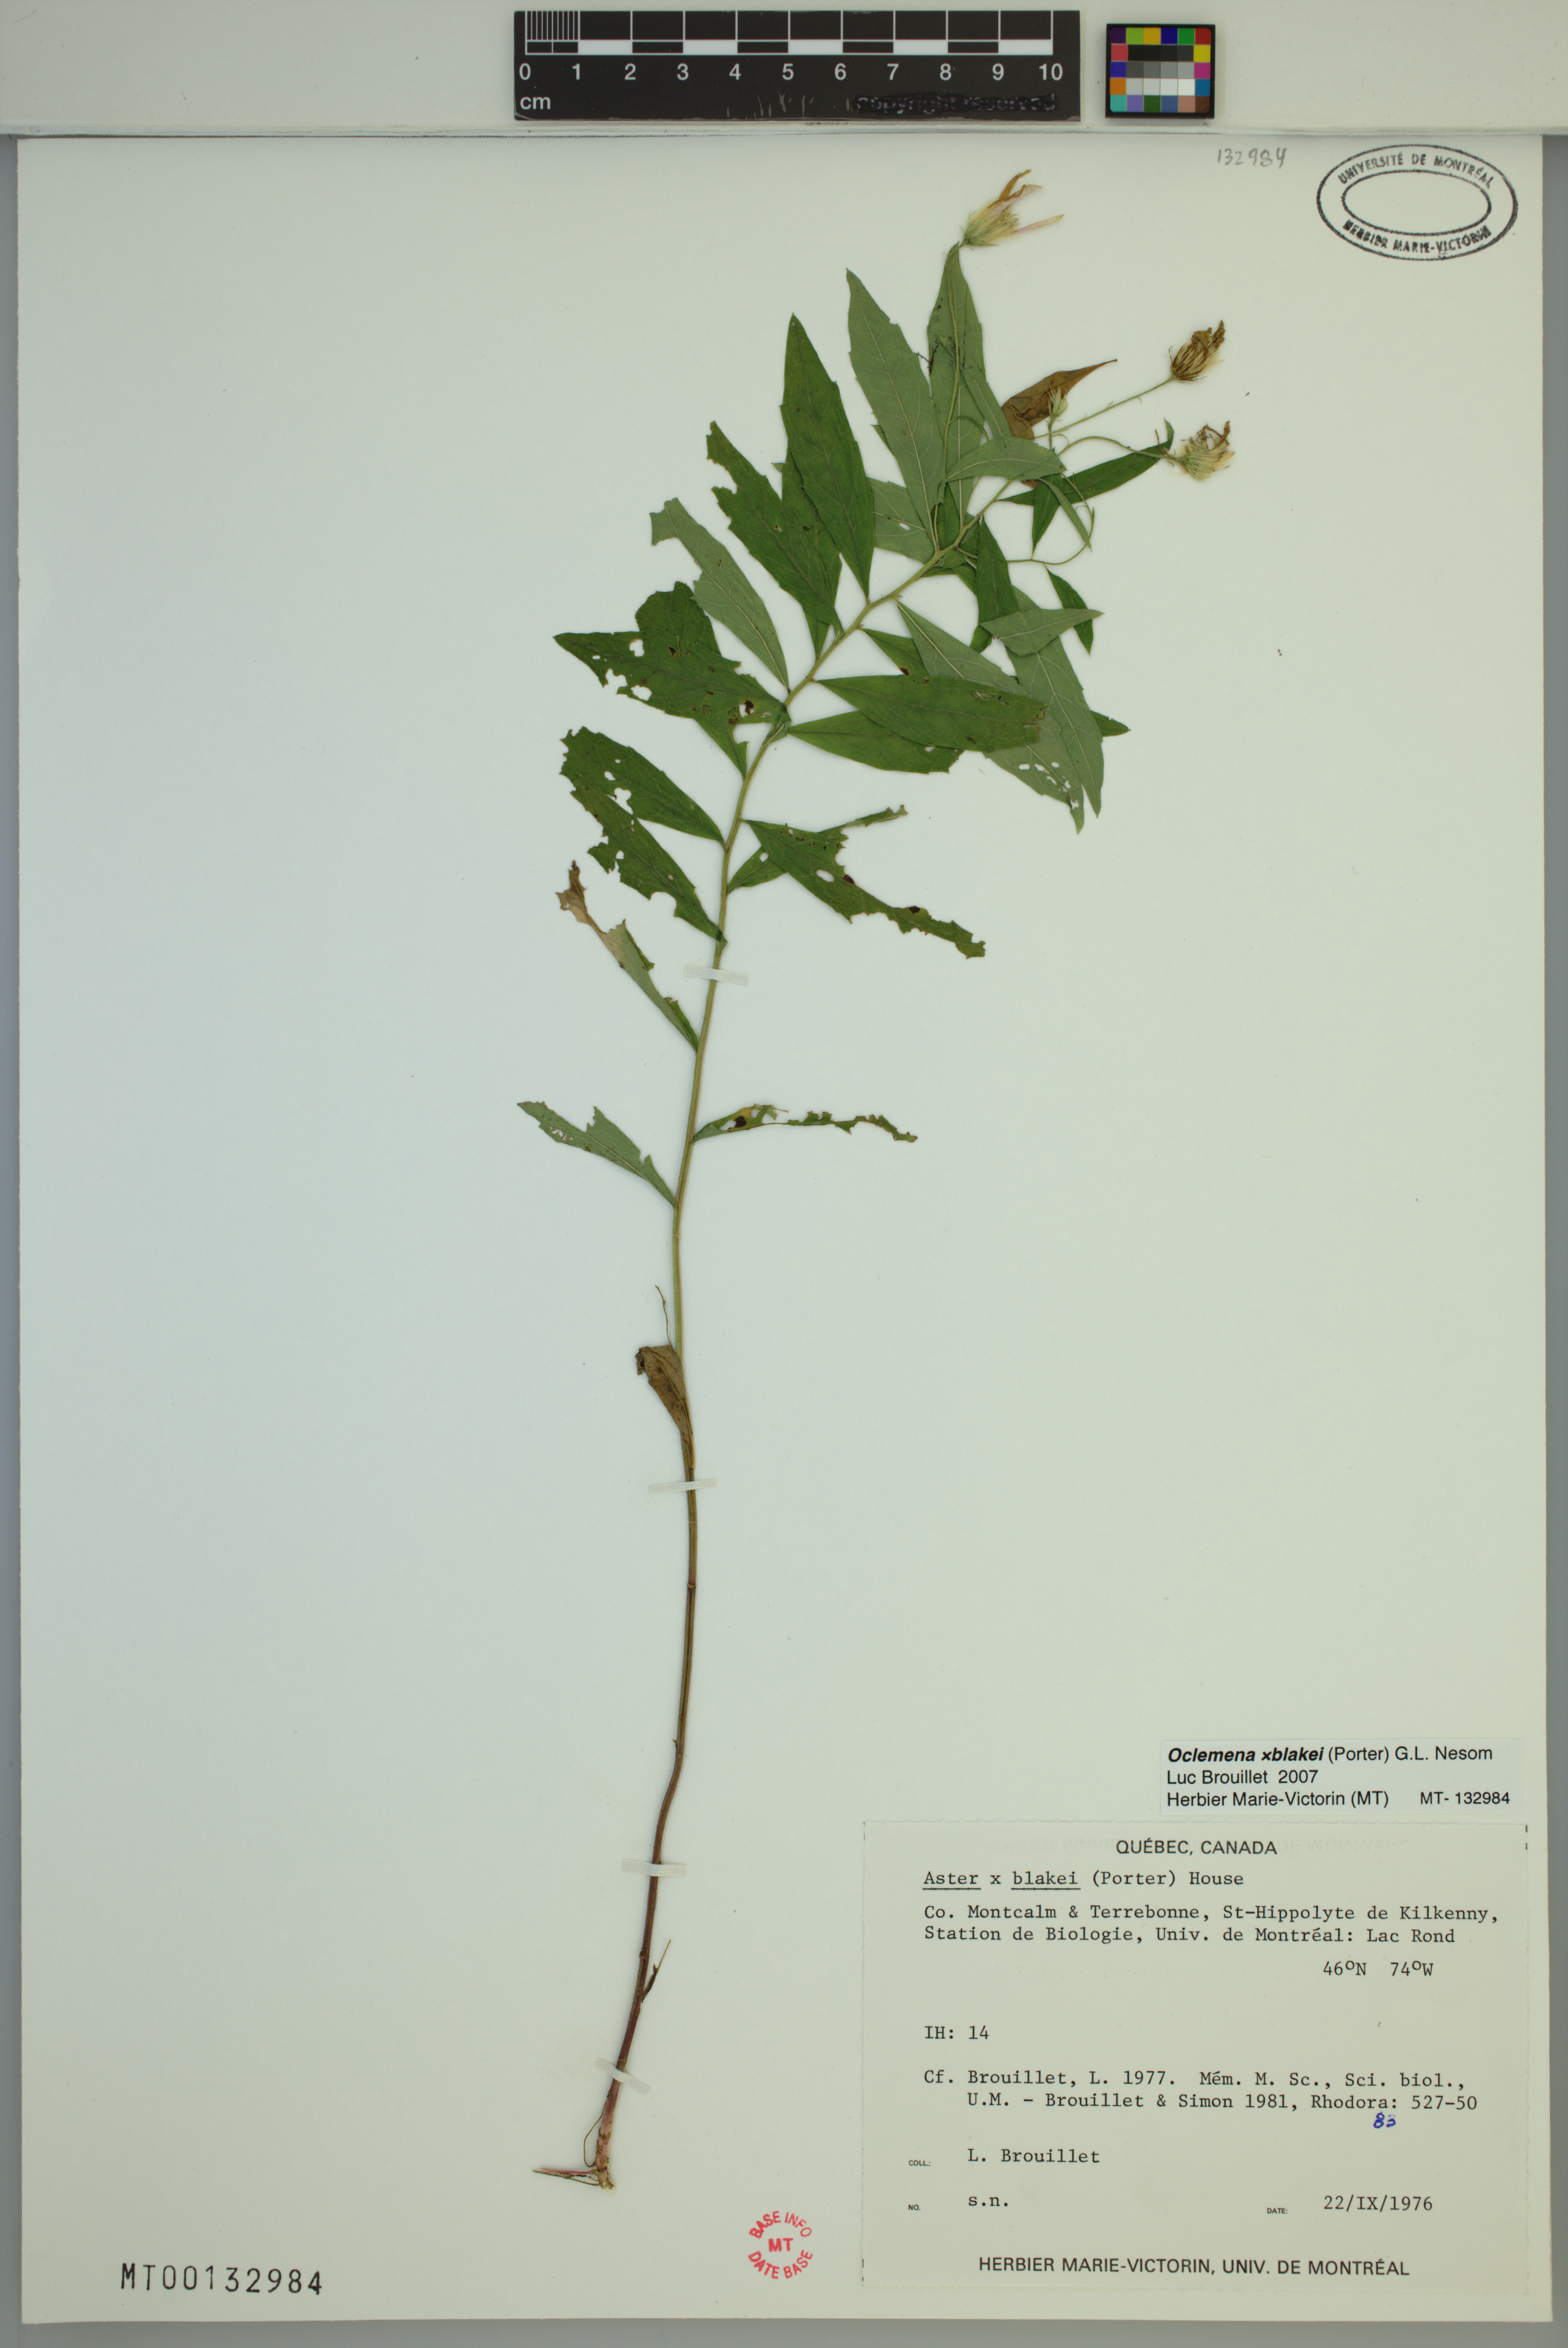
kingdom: Plantae
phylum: Tracheophyta
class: Magnoliopsida
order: Asterales
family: Asteraceae
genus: Oclemena
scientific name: Oclemena blakei
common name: Blake's aster
